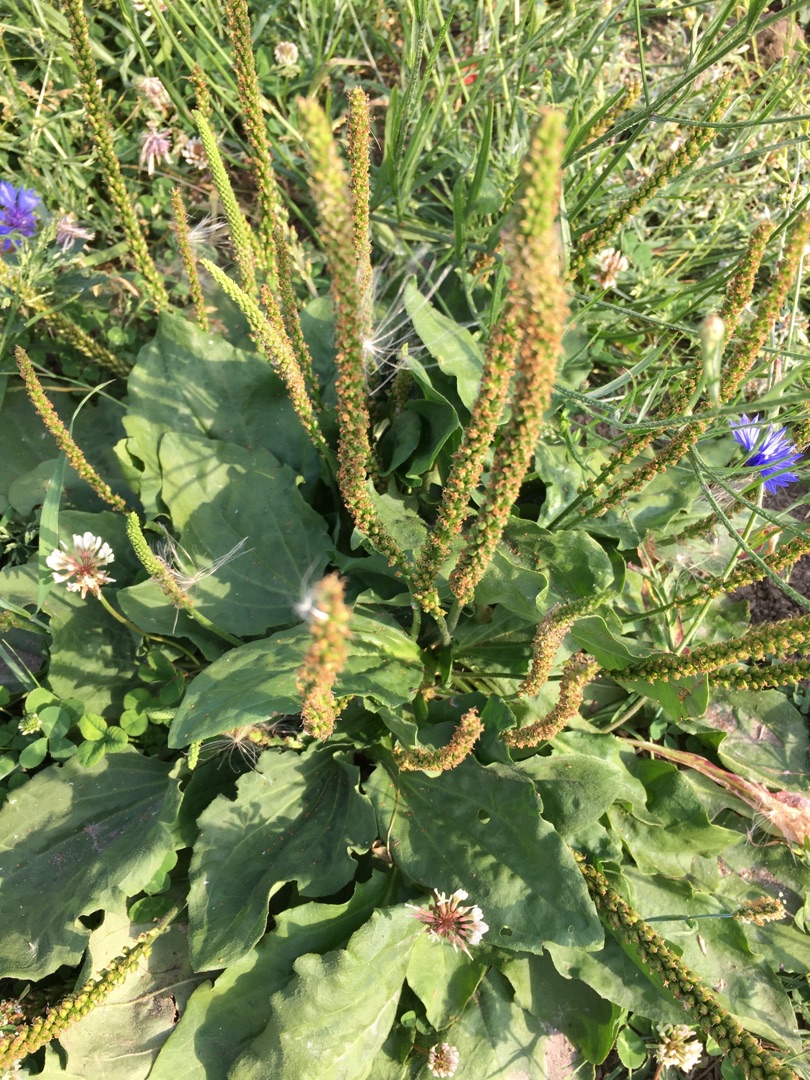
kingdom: Plantae
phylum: Tracheophyta
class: Magnoliopsida
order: Lamiales
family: Plantaginaceae
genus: Plantago
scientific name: Plantago major
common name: Glat vejbred
